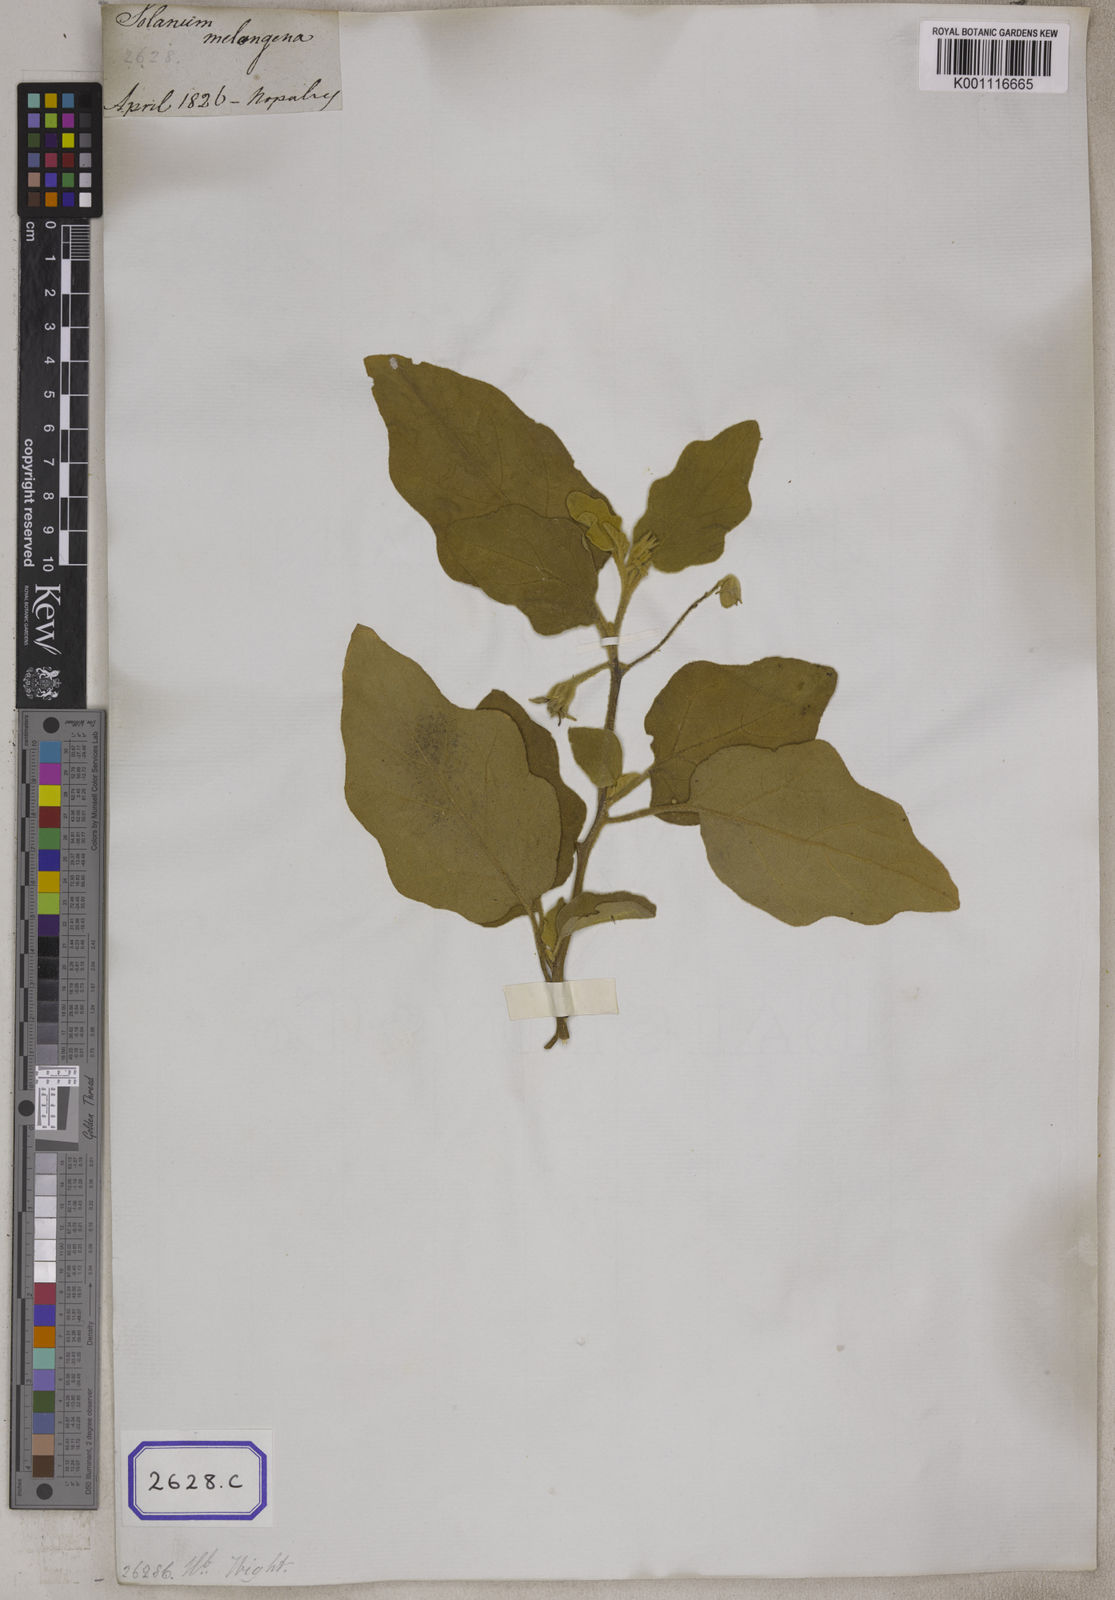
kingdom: Plantae
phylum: Tracheophyta
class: Magnoliopsida
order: Solanales
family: Solanaceae
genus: Solanum
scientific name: Solanum melongena
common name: Eggplant
